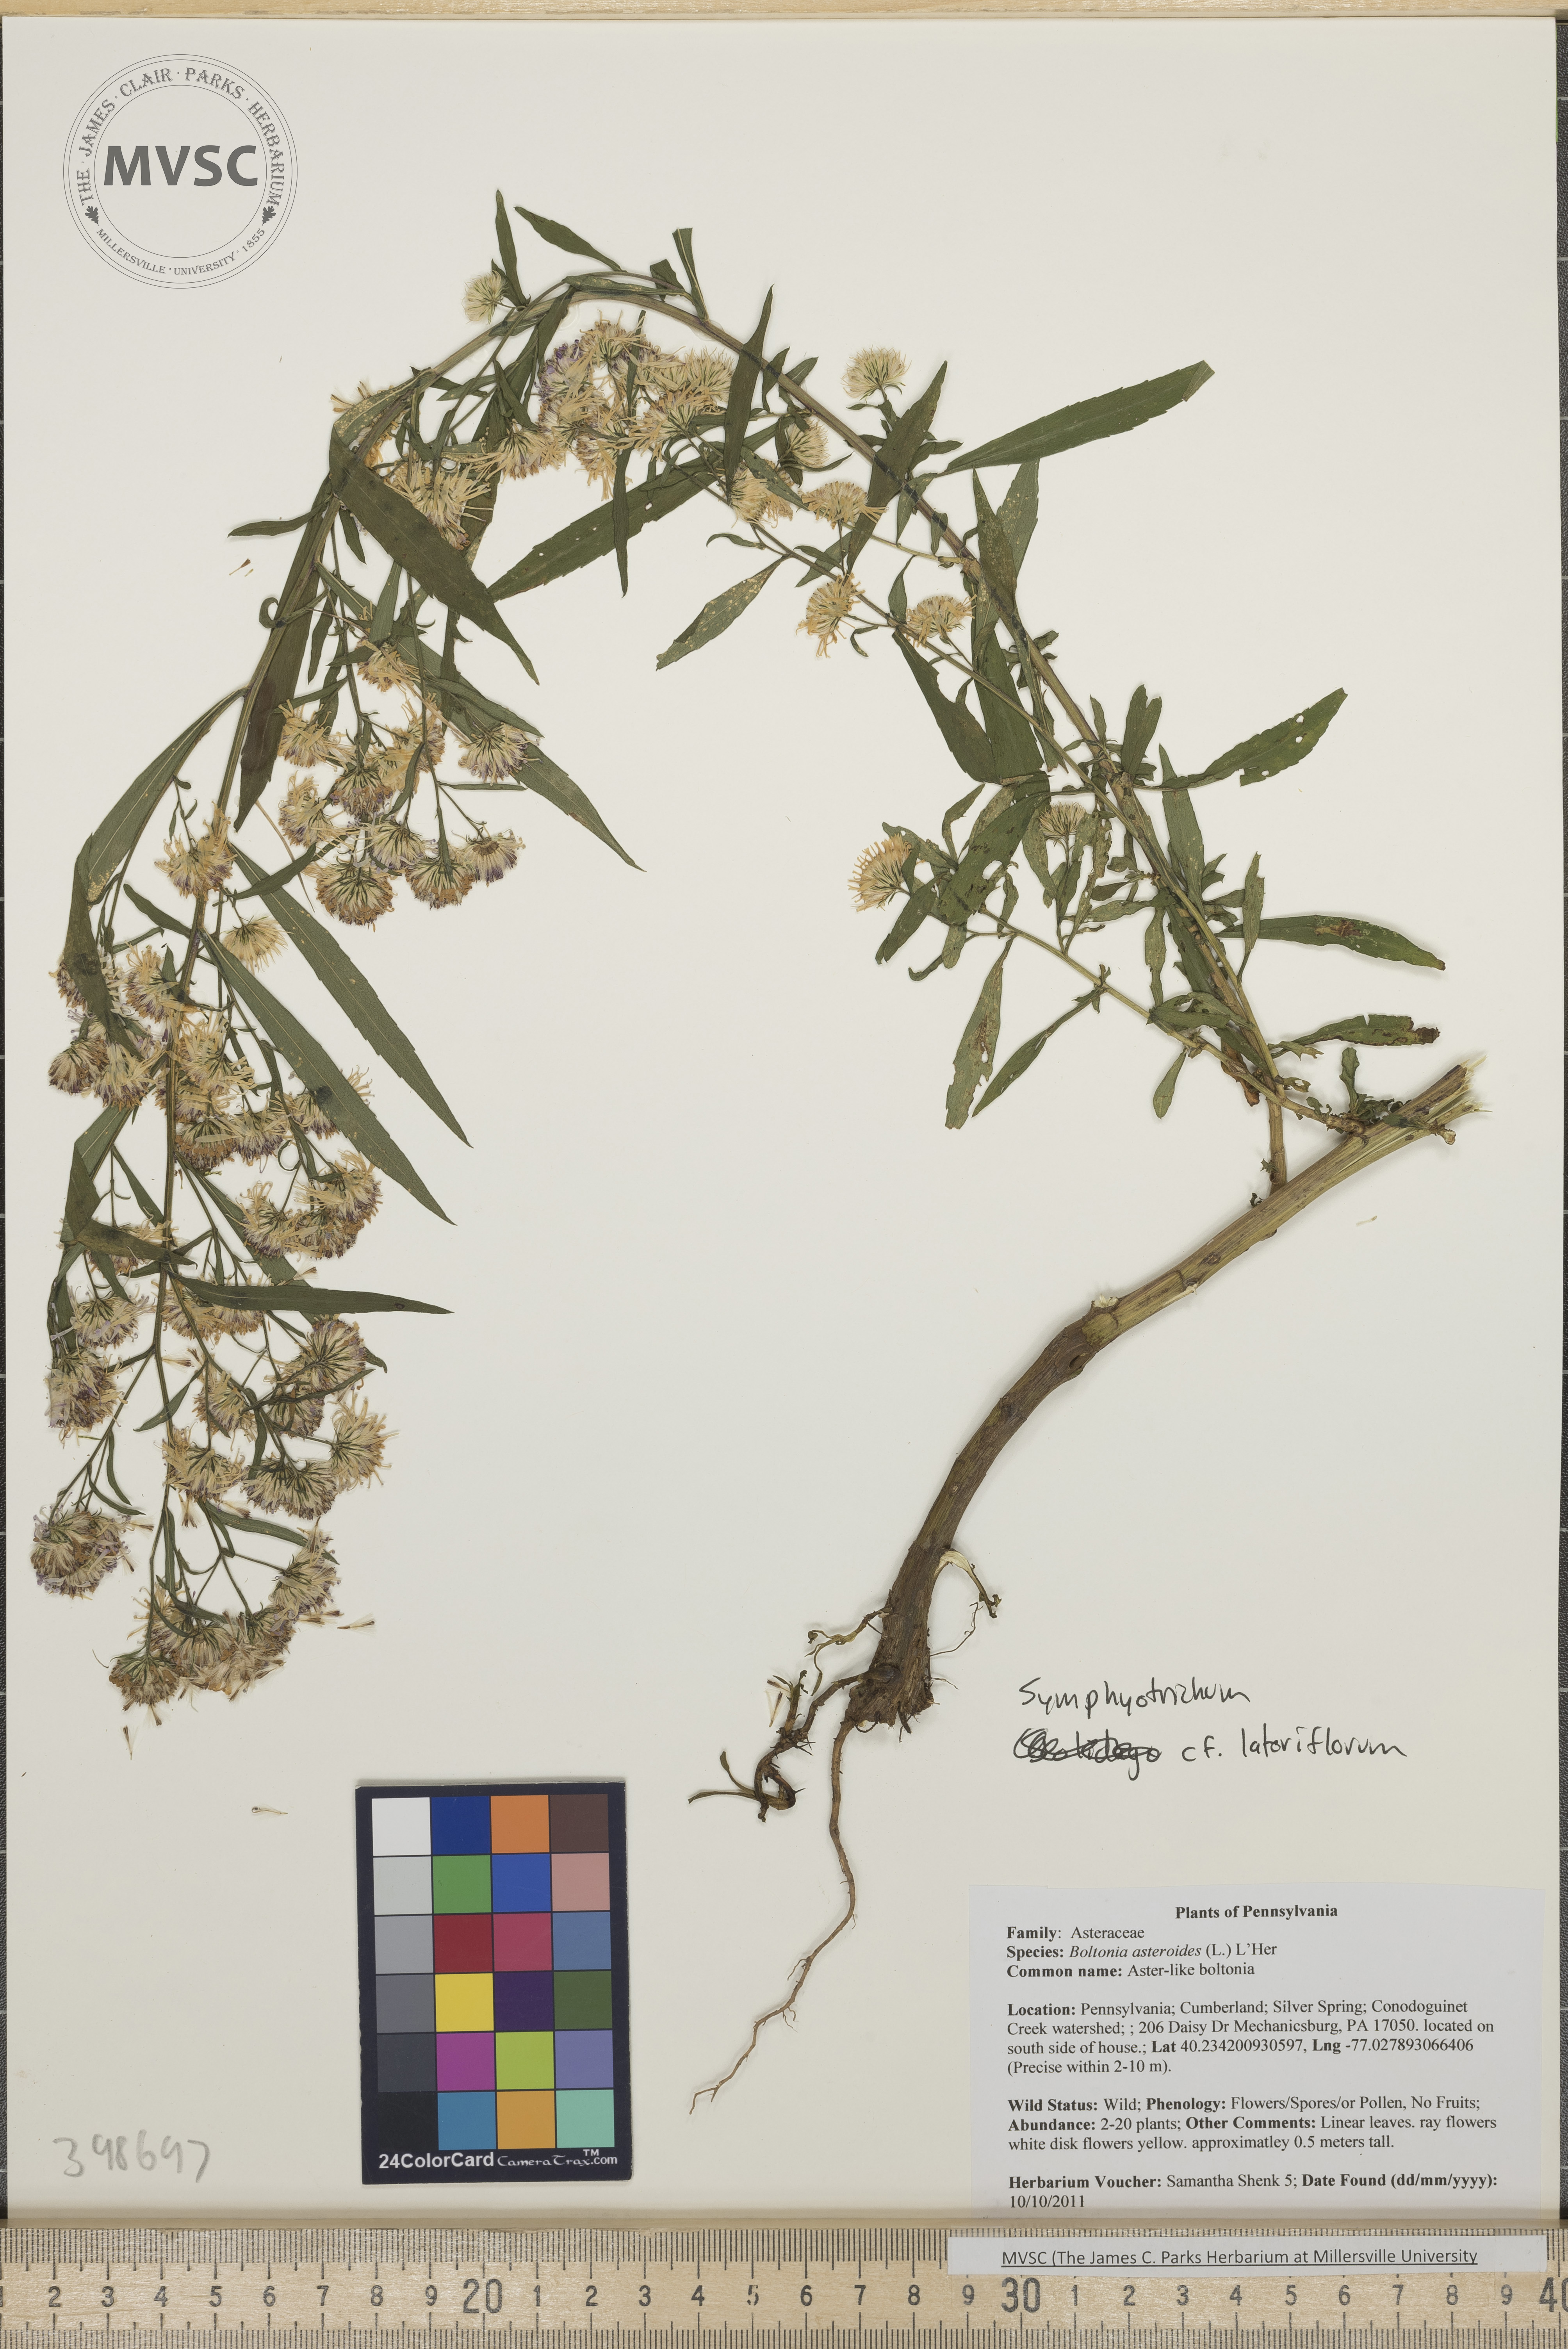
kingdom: Plantae
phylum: Tracheophyta
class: Magnoliopsida
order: Asterales
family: Asteraceae
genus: Symphyotrichum
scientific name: Symphyotrichum lateriflorum
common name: Calico aster
